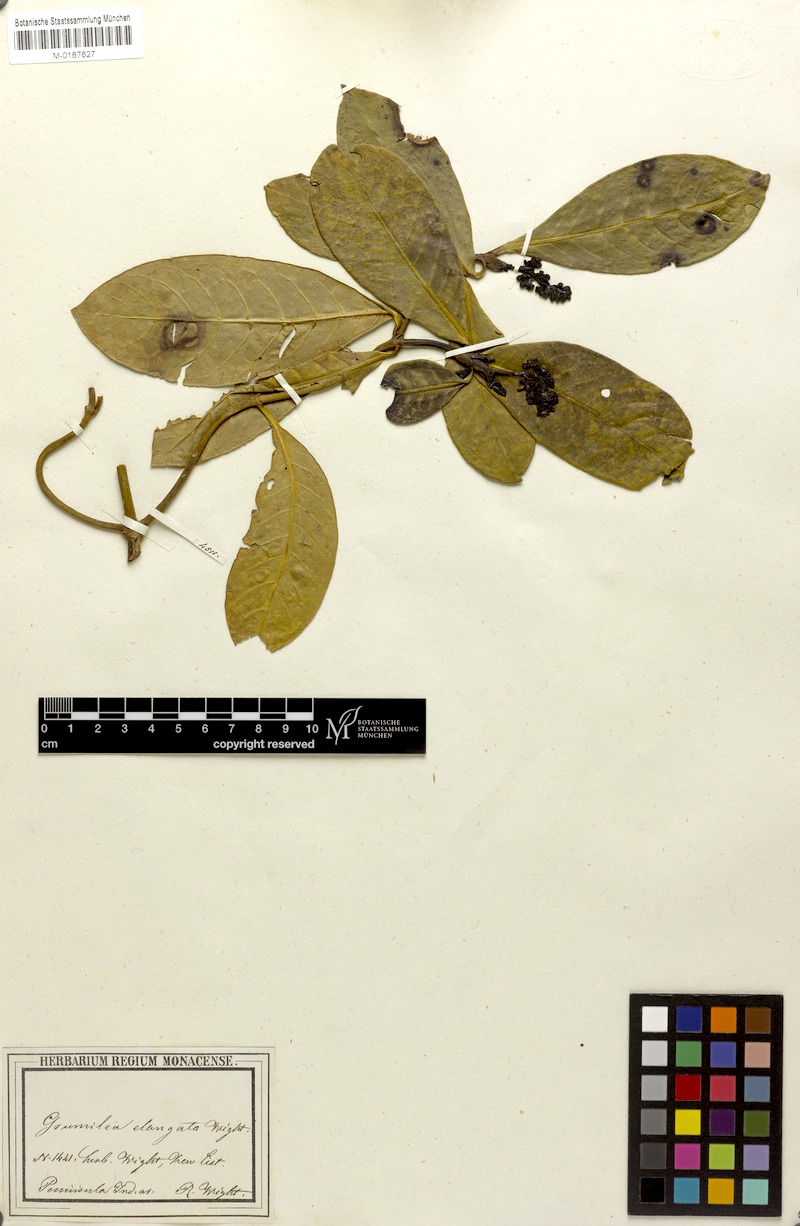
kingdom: Plantae
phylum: Tracheophyta
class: Magnoliopsida
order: Gentianales
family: Rubiaceae
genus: Psychotria
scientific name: Psychotria nilgherensis
